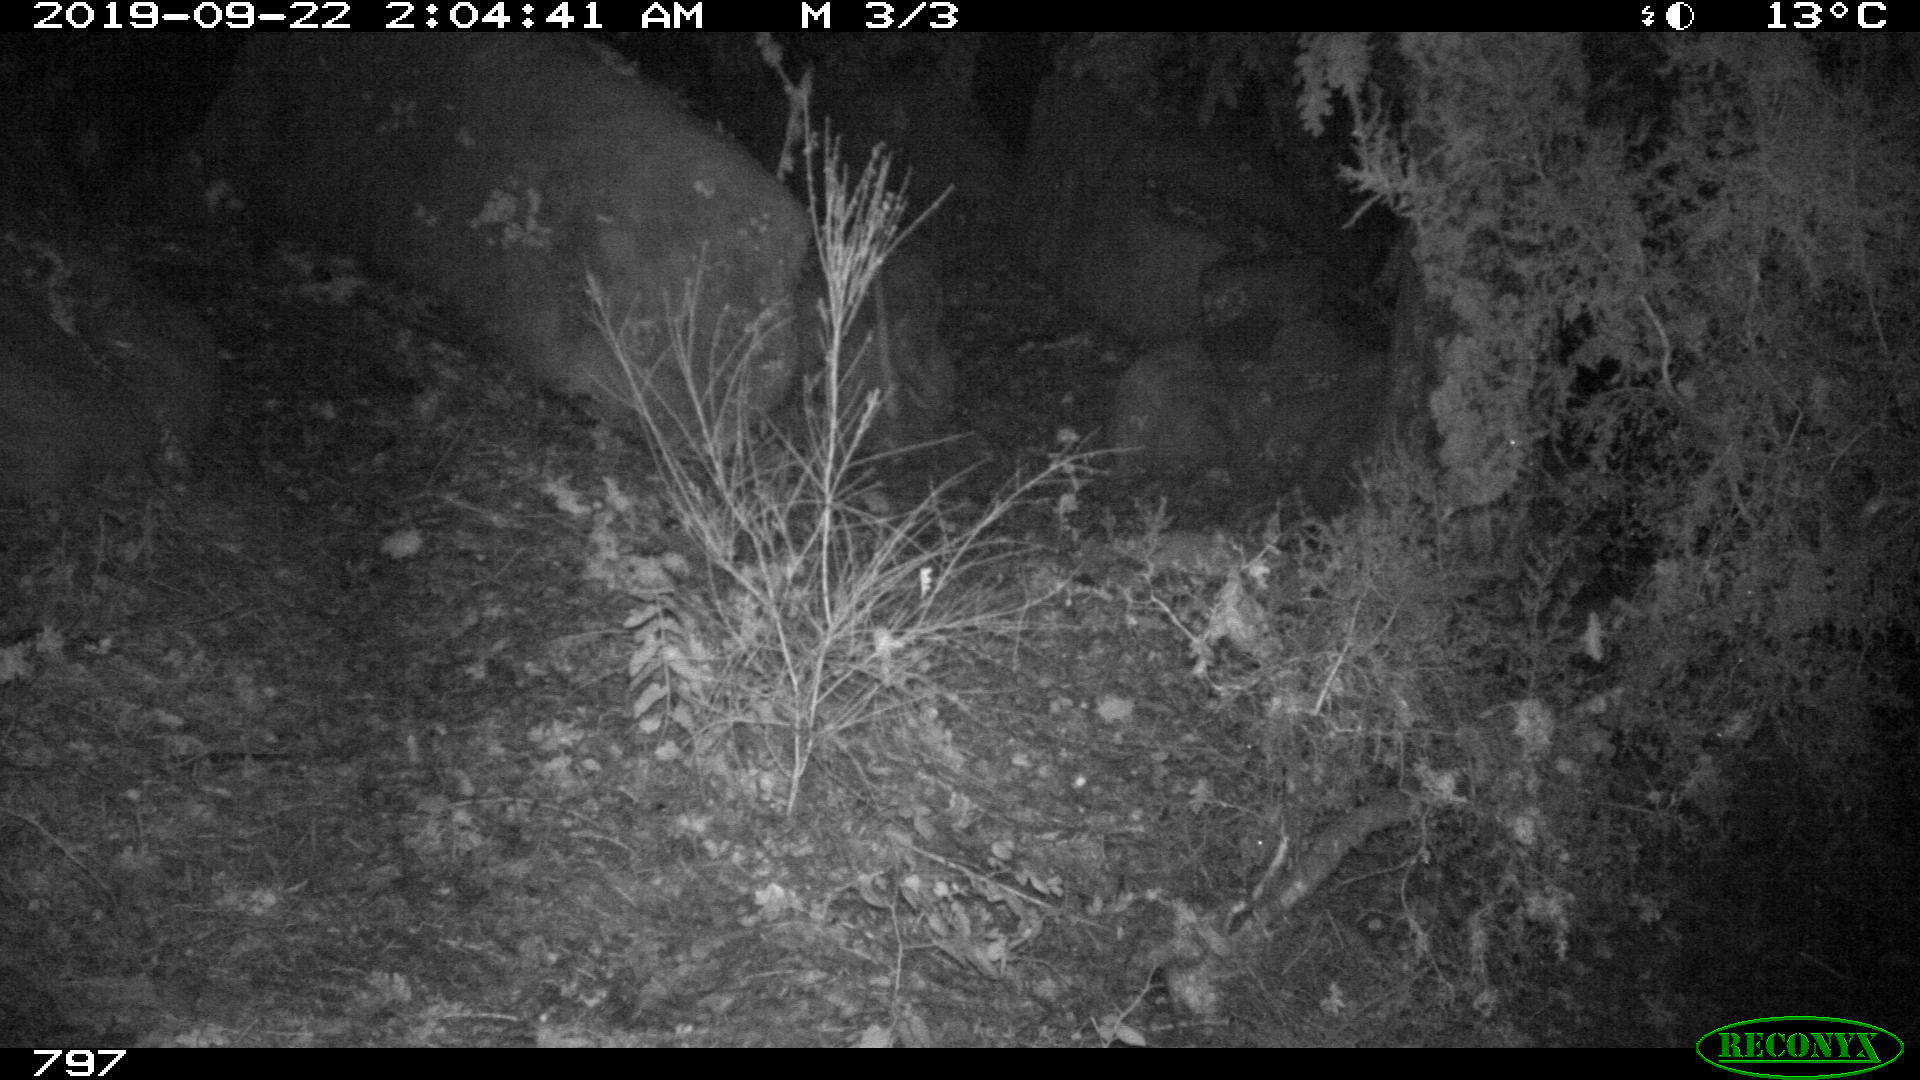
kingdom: Animalia
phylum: Chordata
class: Mammalia
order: Artiodactyla
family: Suidae
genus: Sus
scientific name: Sus scrofa
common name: Wild boar
